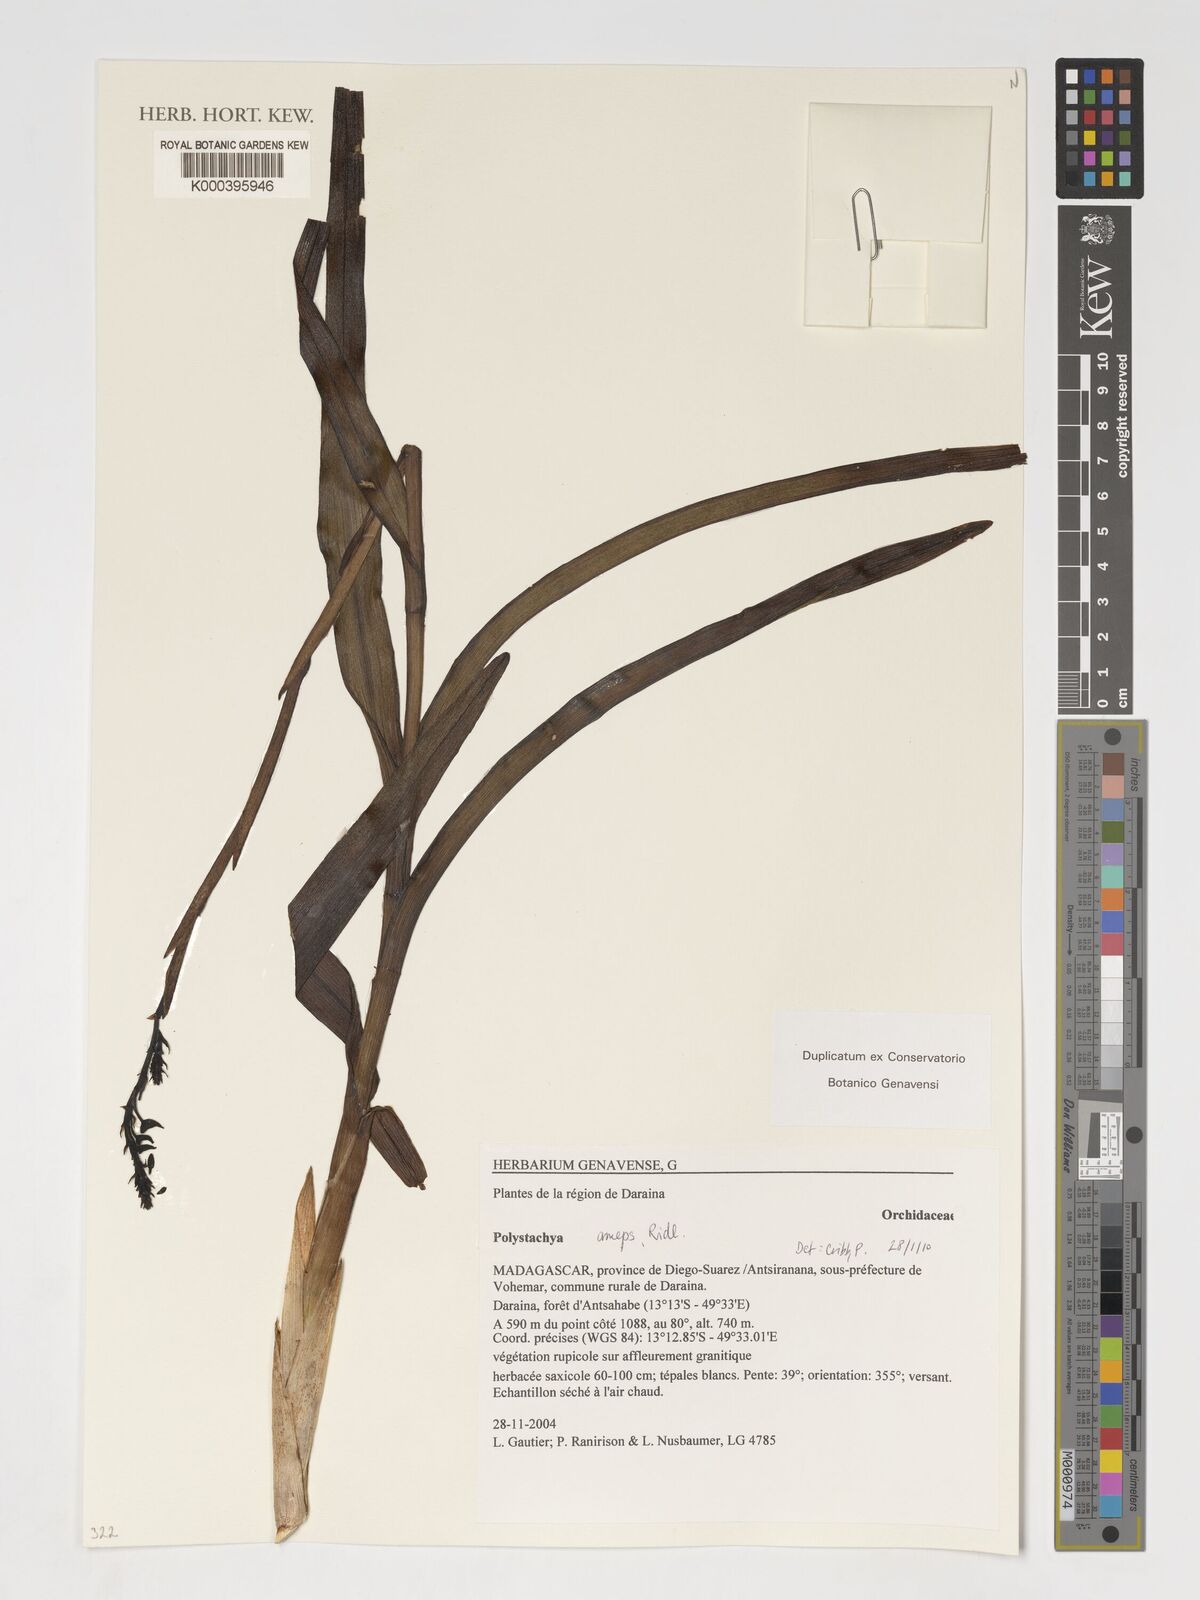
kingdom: Plantae
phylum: Tracheophyta
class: Liliopsida
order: Asparagales
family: Orchidaceae
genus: Polystachya
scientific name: Polystachya anceps
